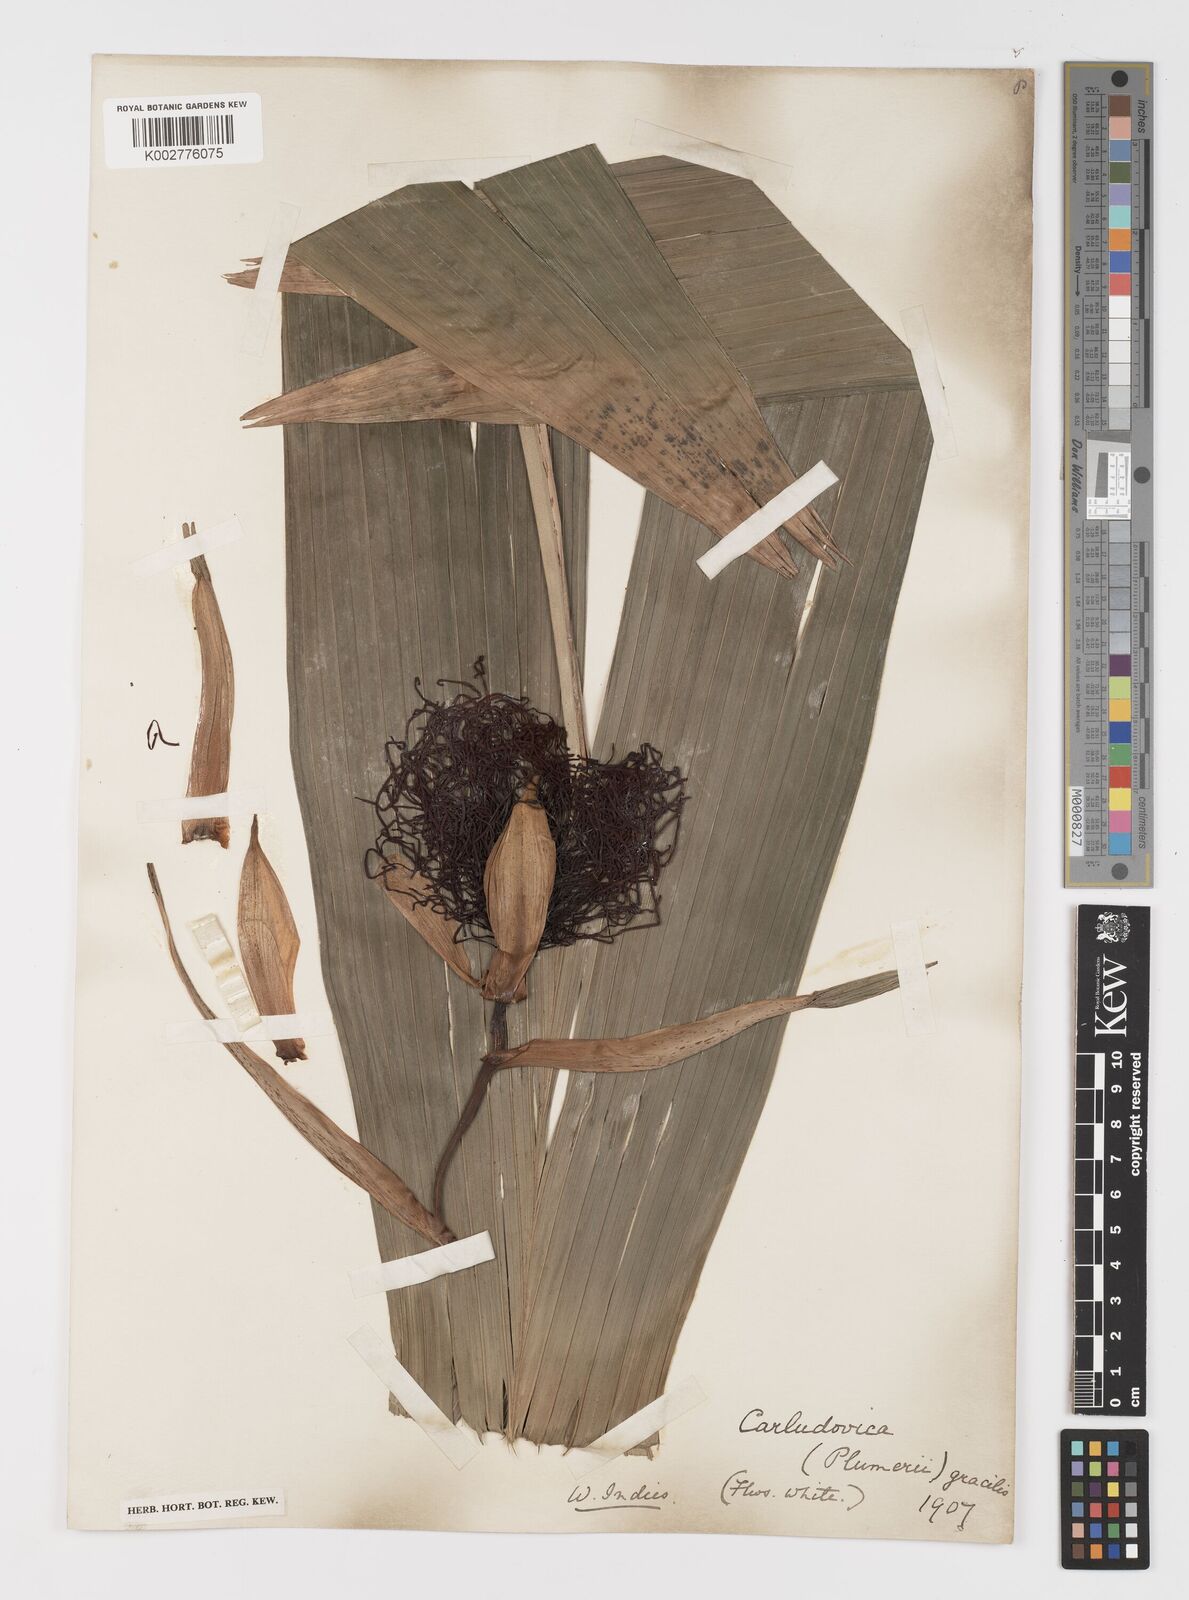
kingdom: Plantae
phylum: Tracheophyta
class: Liliopsida
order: Pandanales
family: Cyclanthaceae
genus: Asplundia
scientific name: Asplundia rigida
